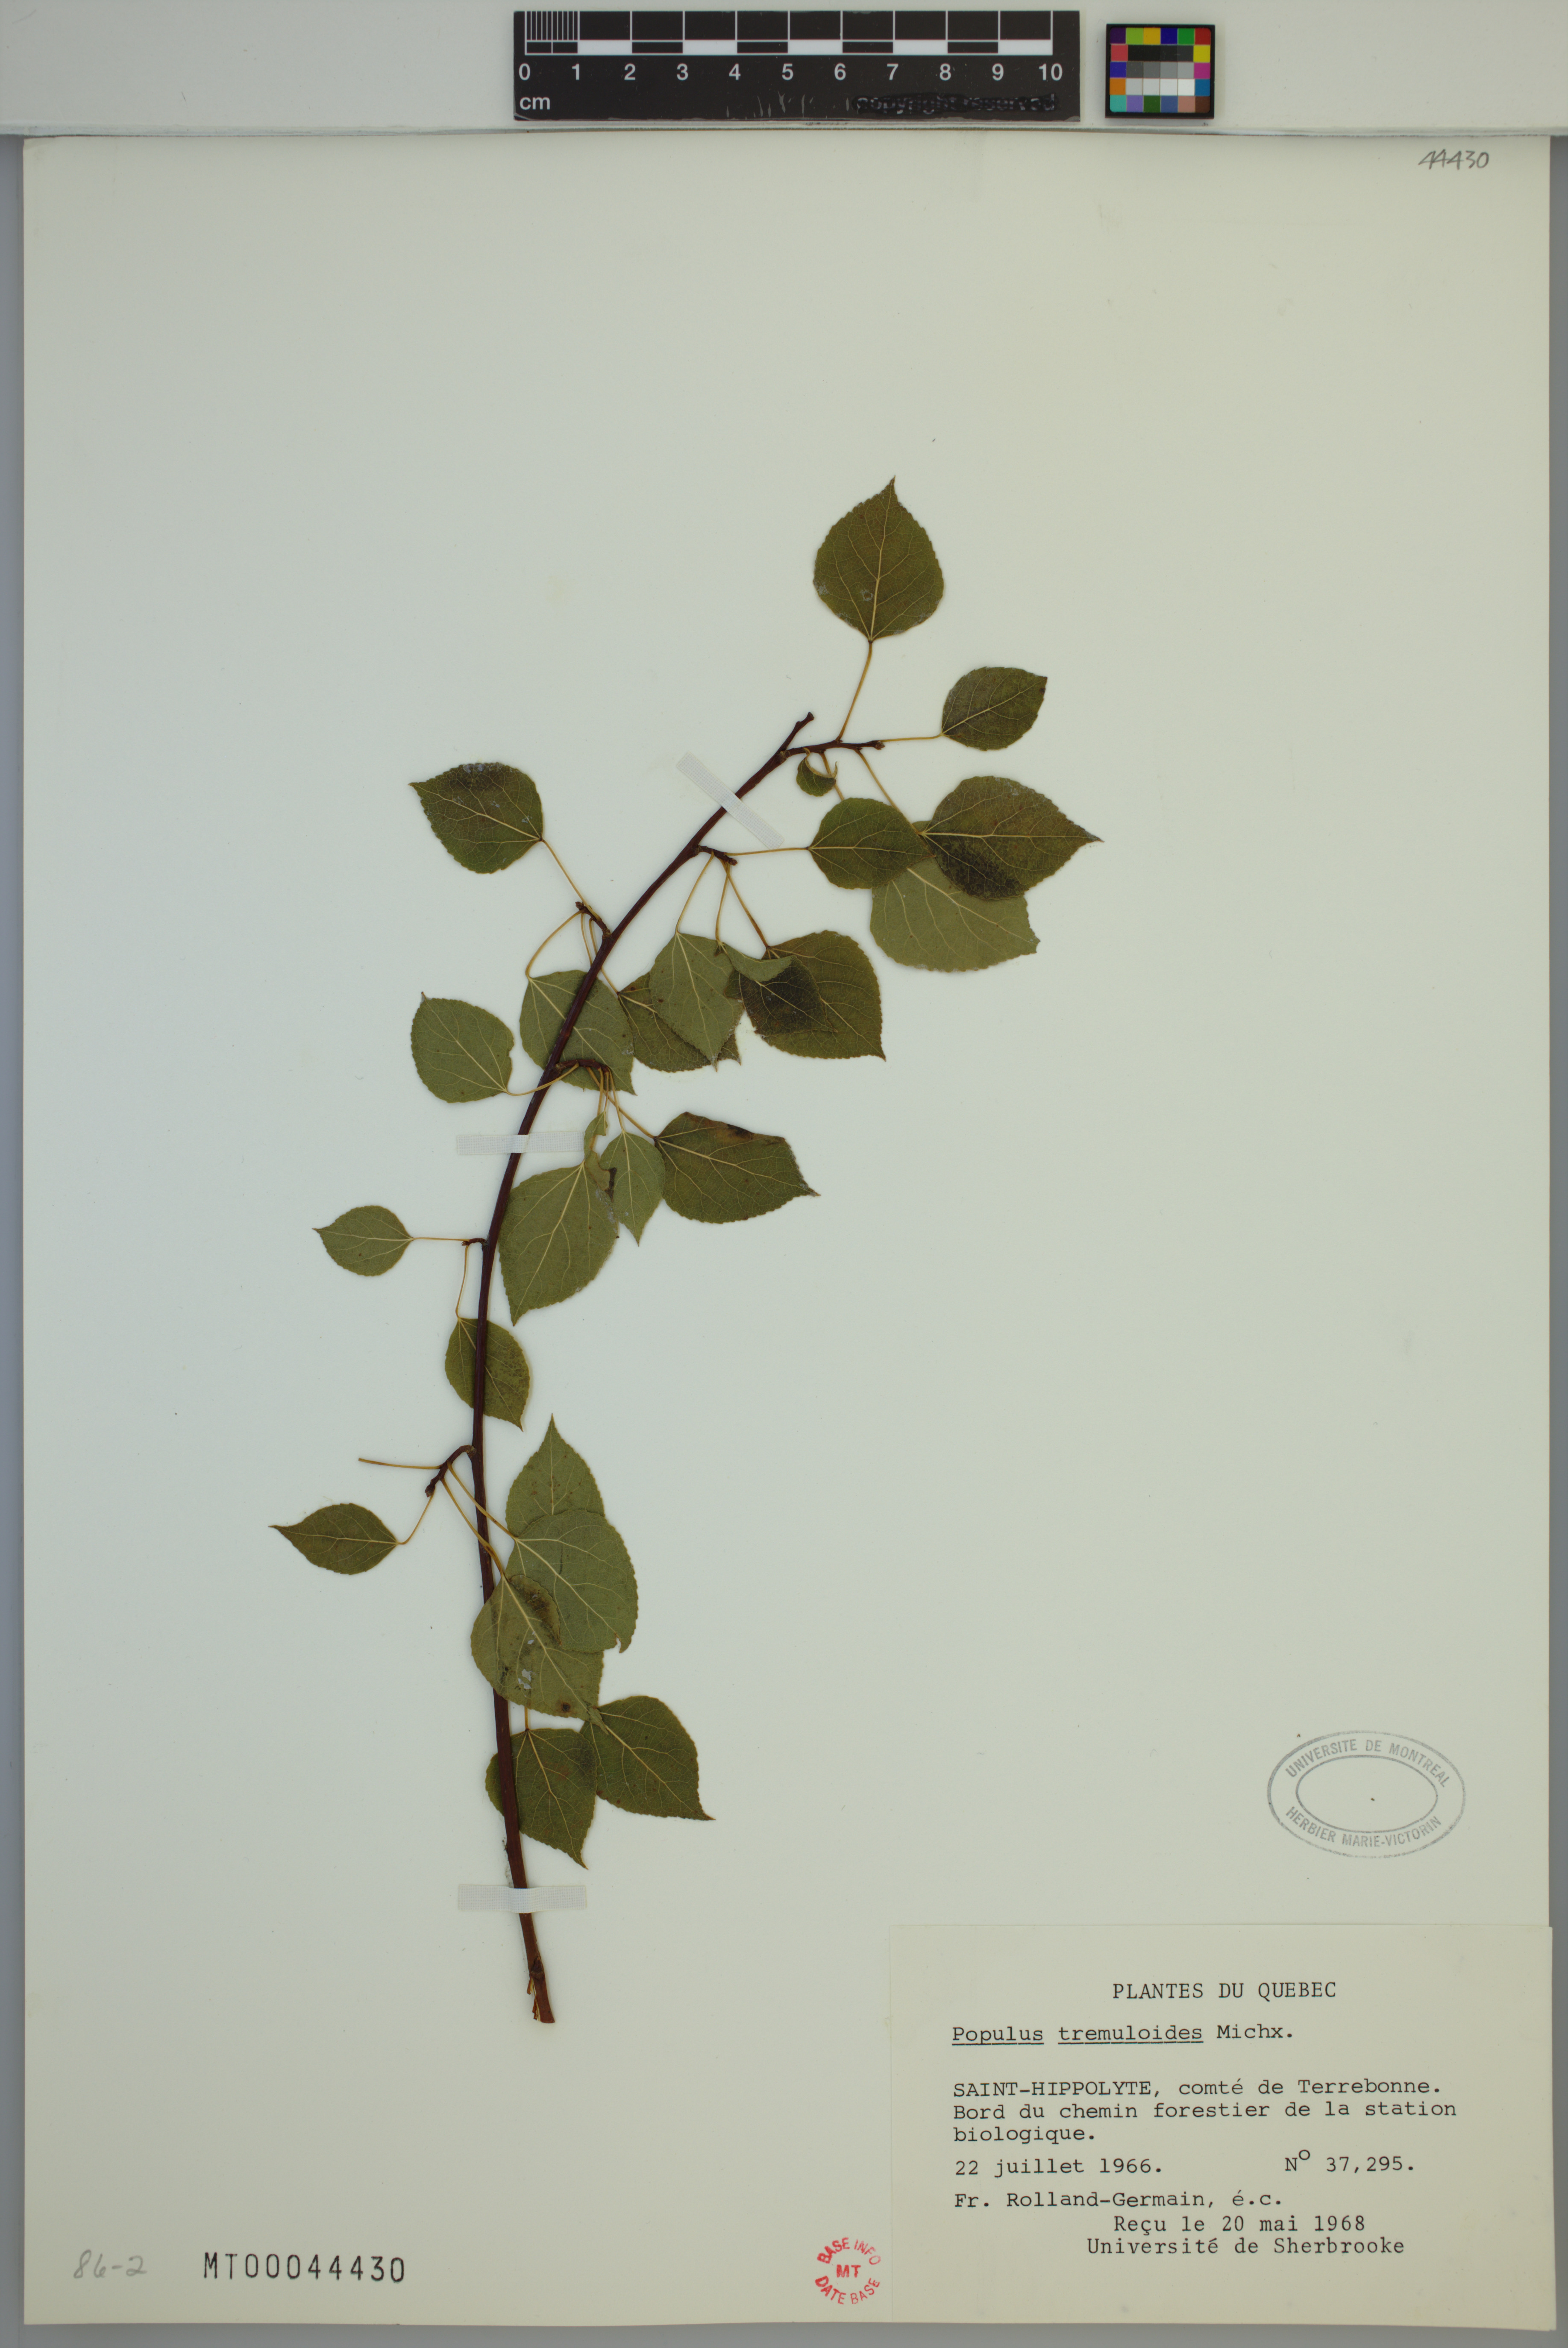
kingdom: Plantae
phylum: Tracheophyta
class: Magnoliopsida
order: Malpighiales
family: Salicaceae
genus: Populus
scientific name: Populus tremuloides
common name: Quaking aspen
